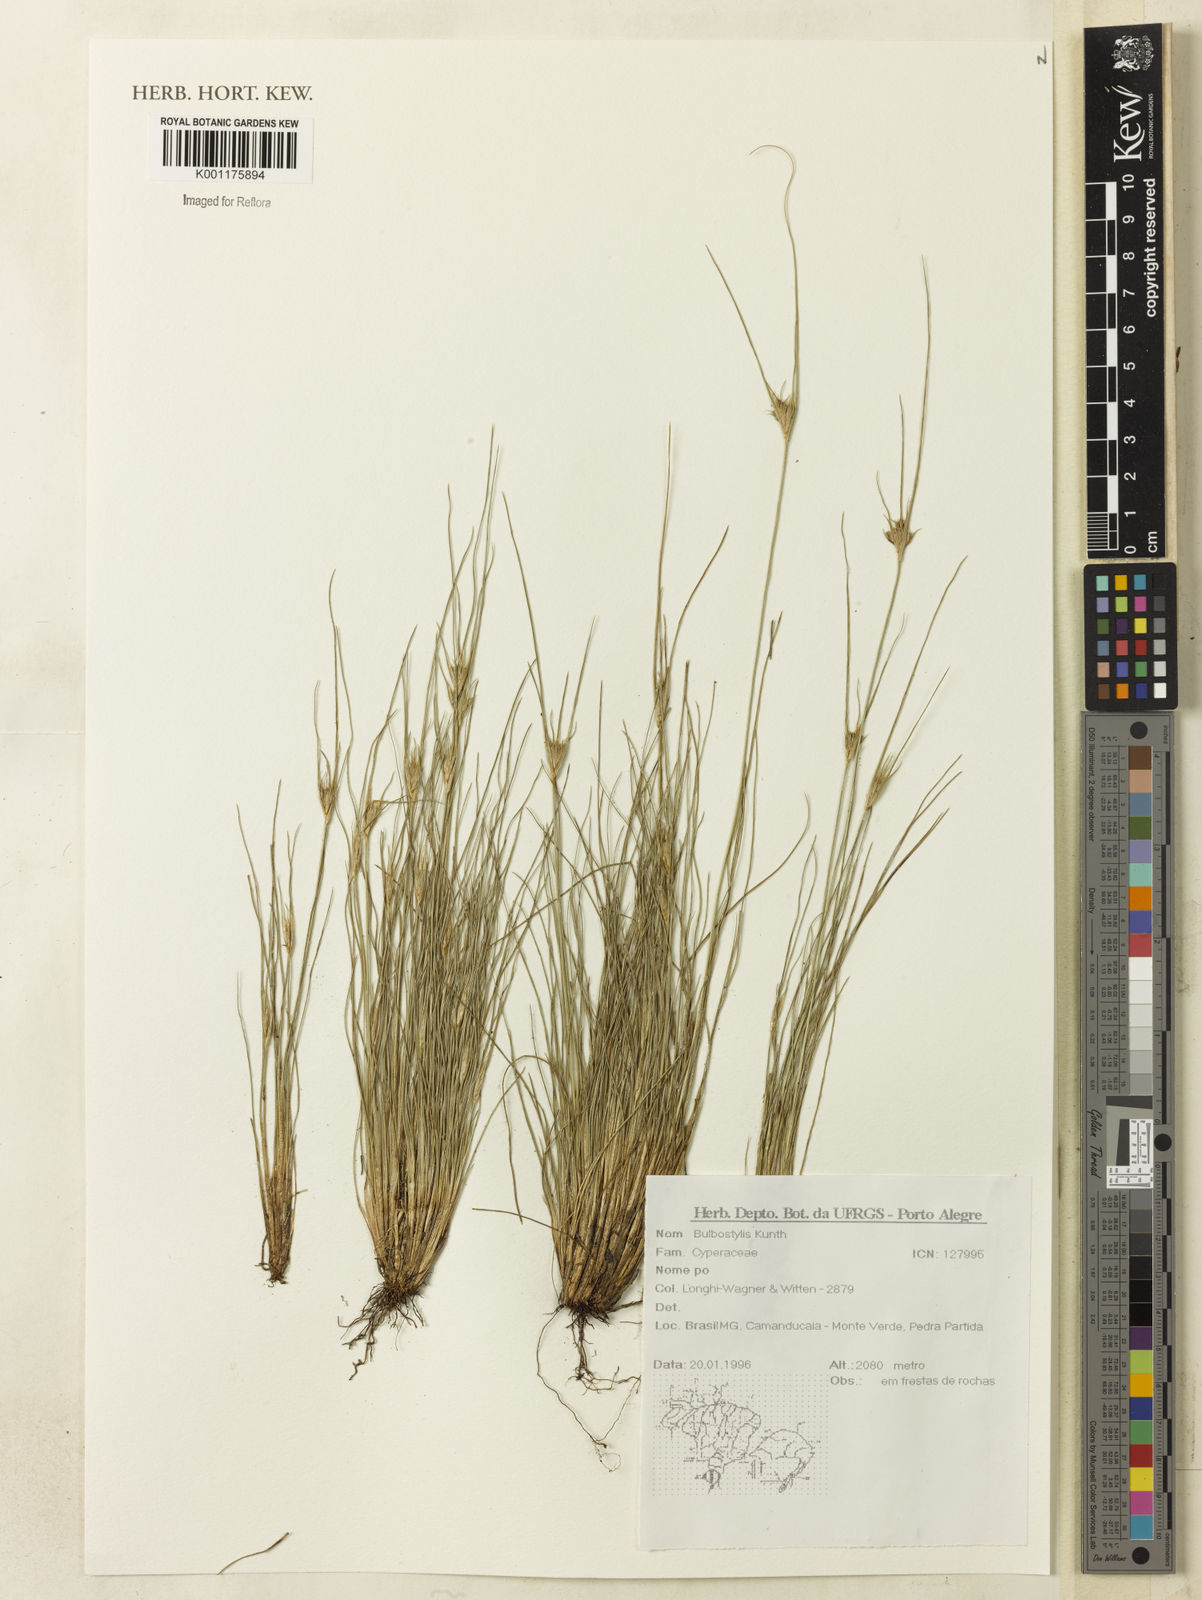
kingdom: Plantae
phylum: Tracheophyta
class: Liliopsida
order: Poales
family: Cyperaceae
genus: Bulbostylis
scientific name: Bulbostylis
